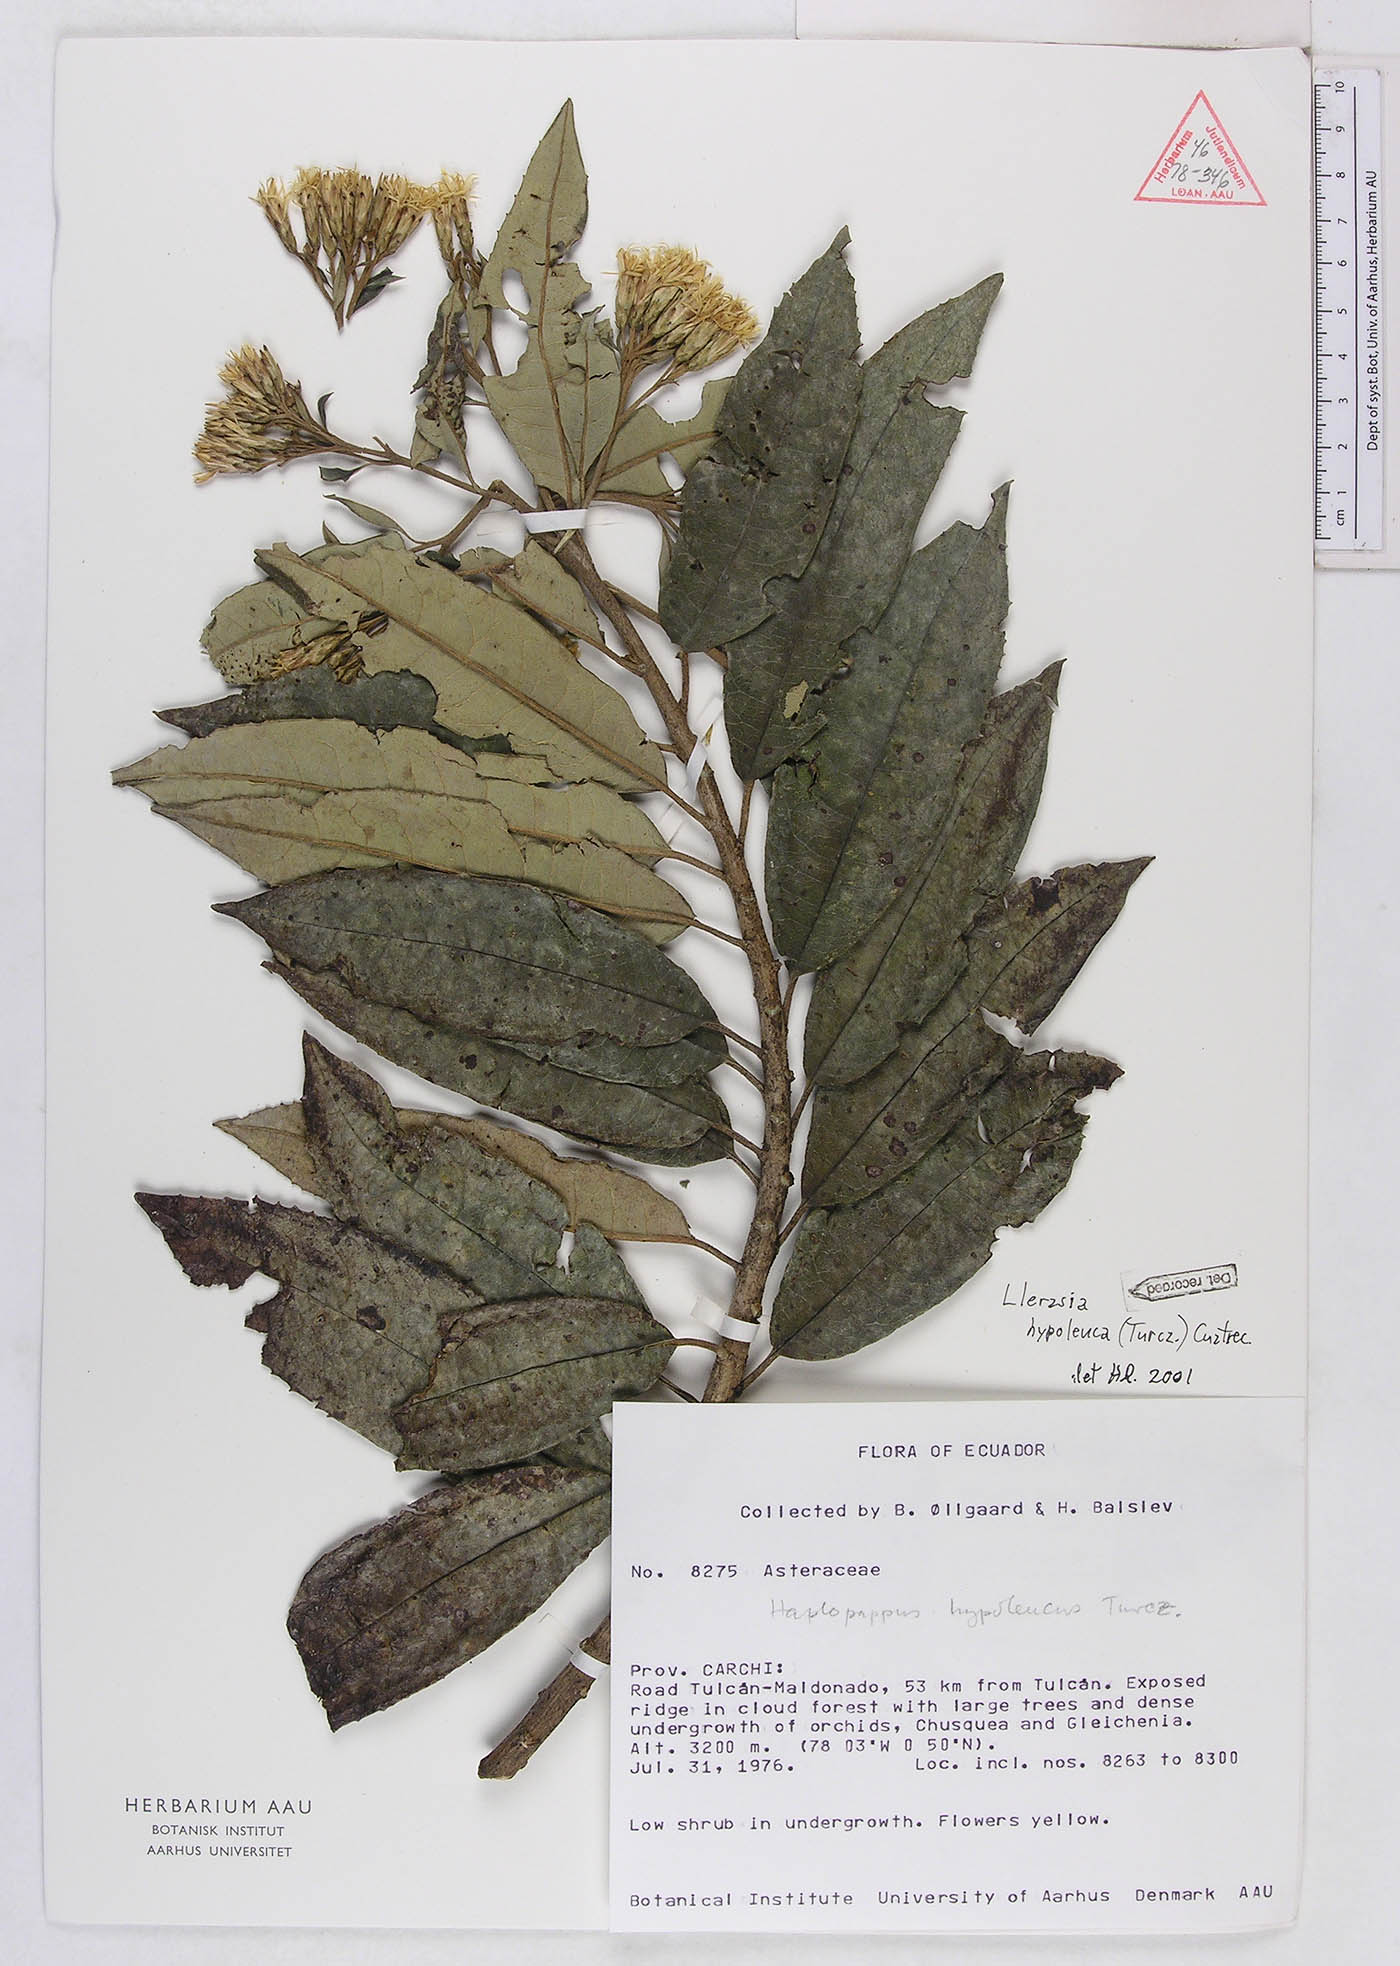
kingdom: Plantae
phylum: Tracheophyta
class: Magnoliopsida
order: Asterales
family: Asteraceae
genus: Llerasia
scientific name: Llerasia hypoleuca
